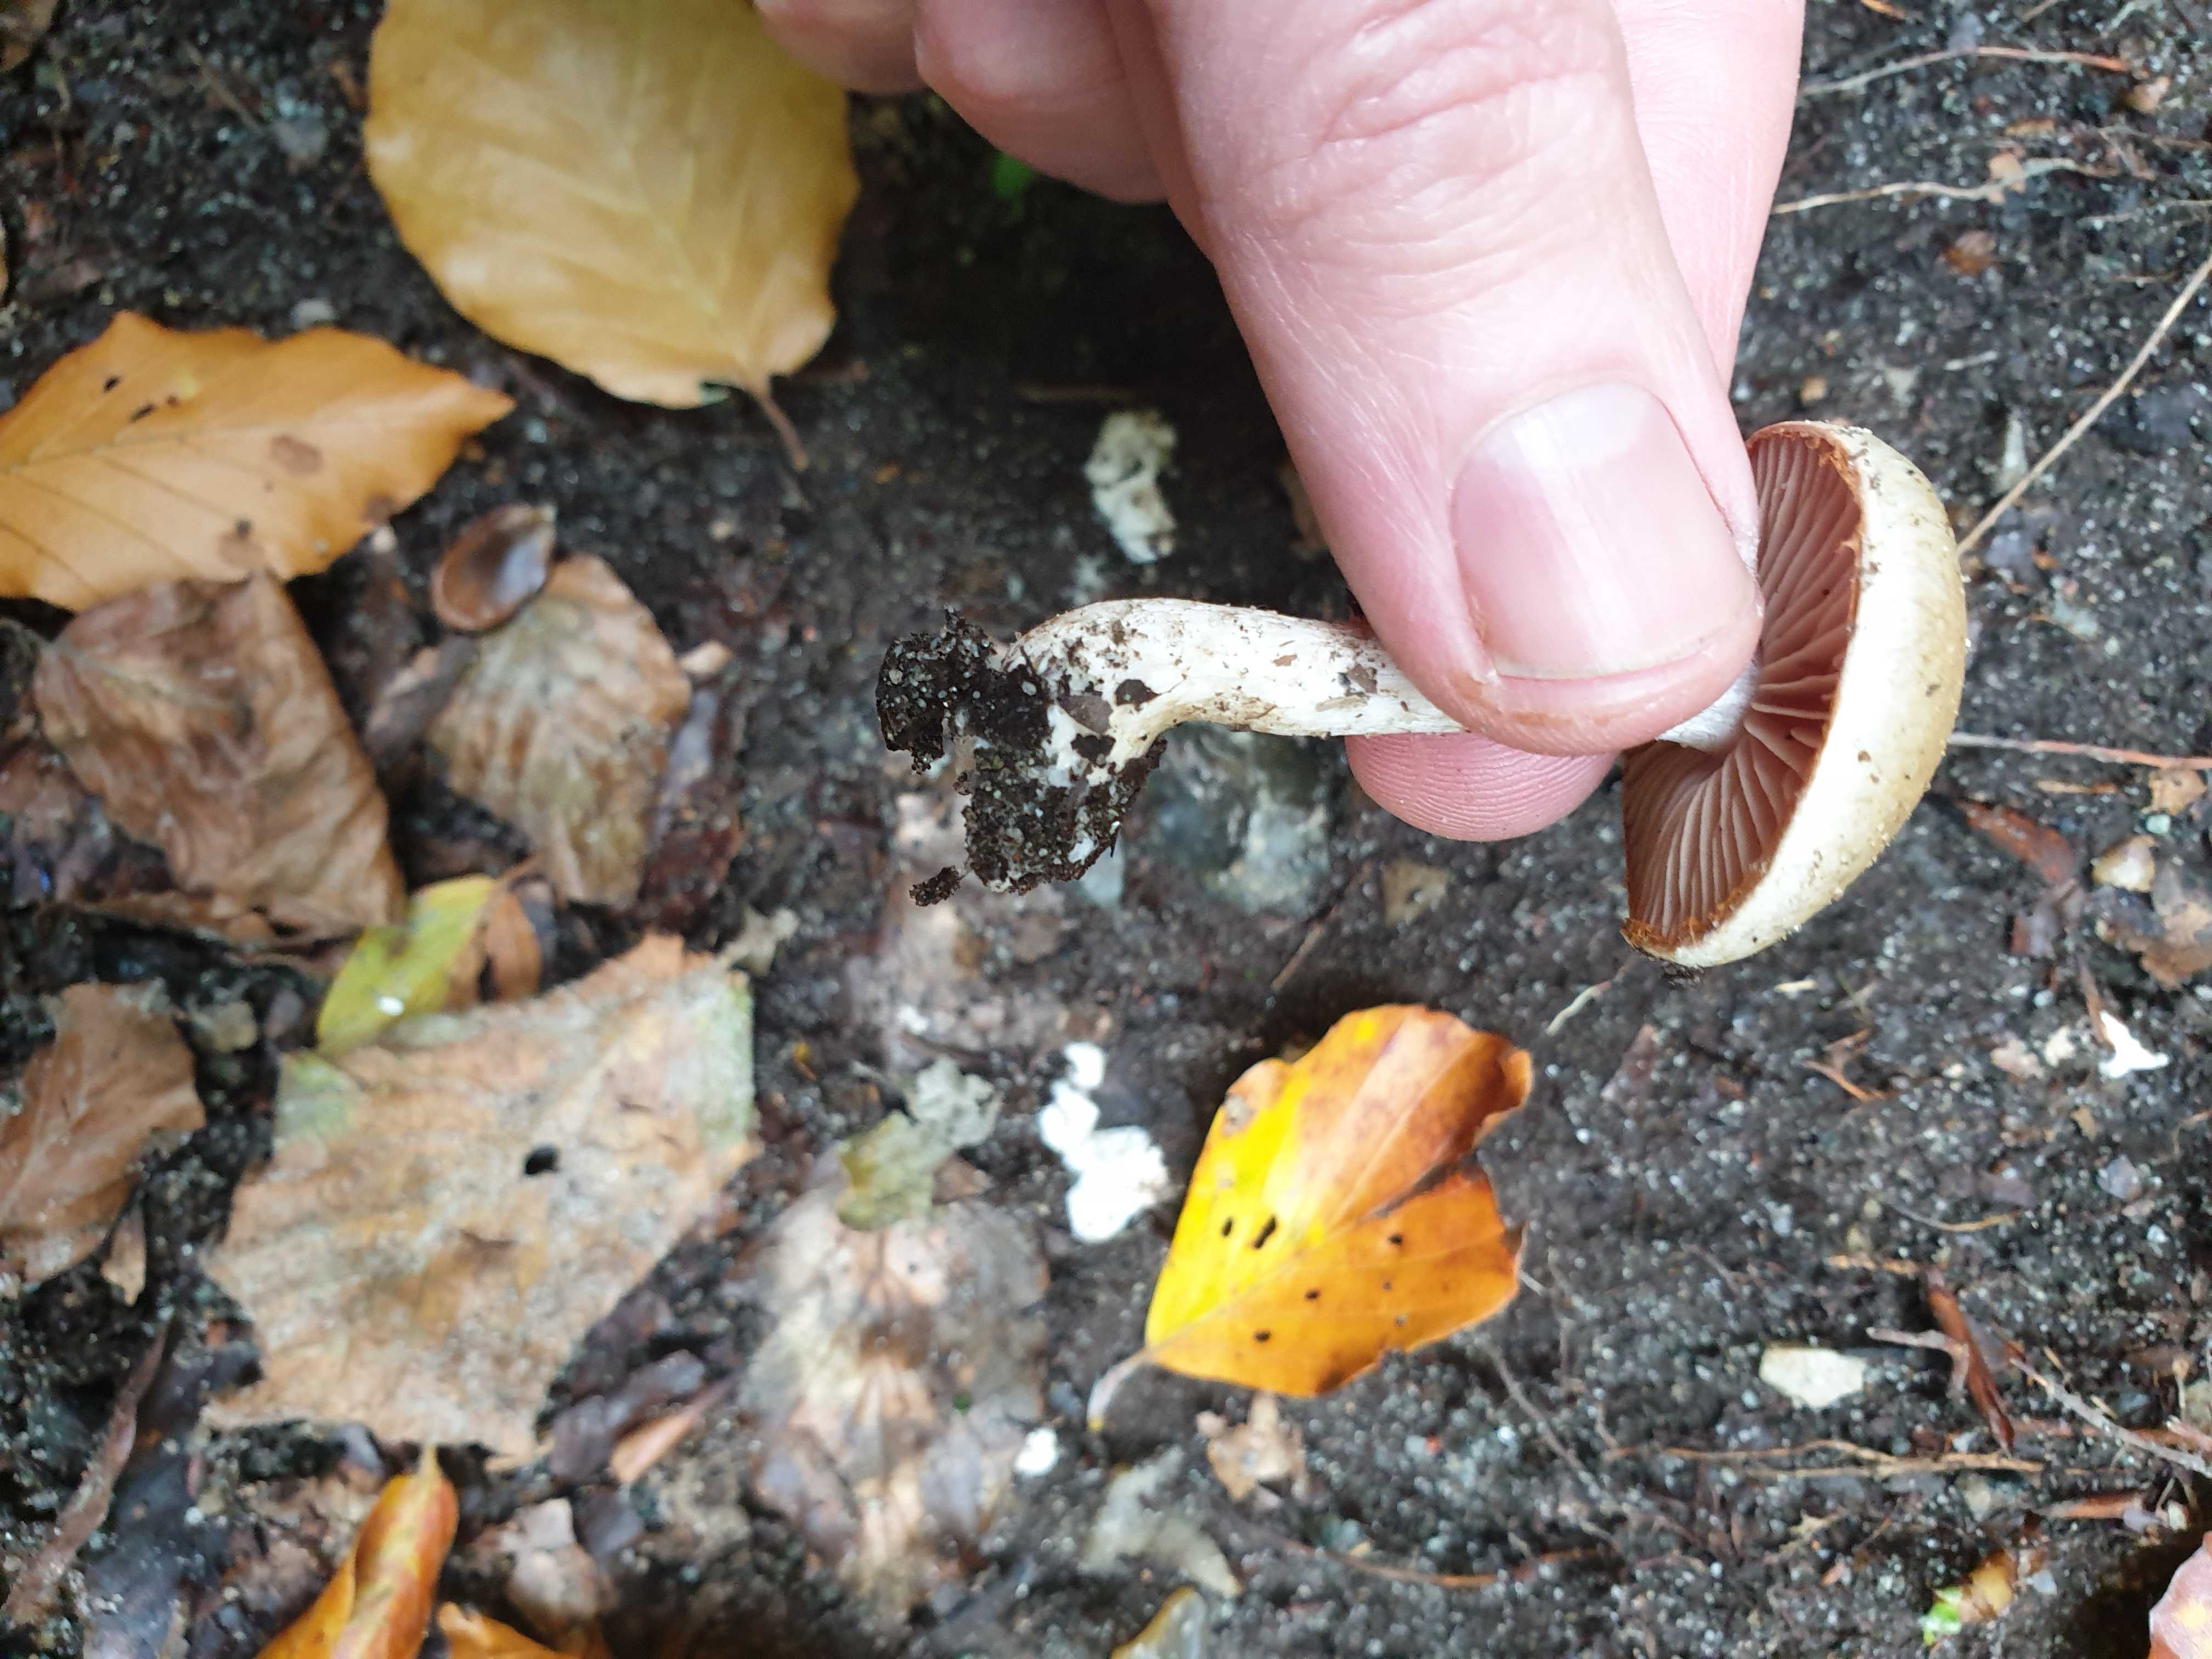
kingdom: Fungi
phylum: Basidiomycota
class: Agaricomycetes
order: Agaricales
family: Cortinariaceae
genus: Cortinarius
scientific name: Cortinarius
